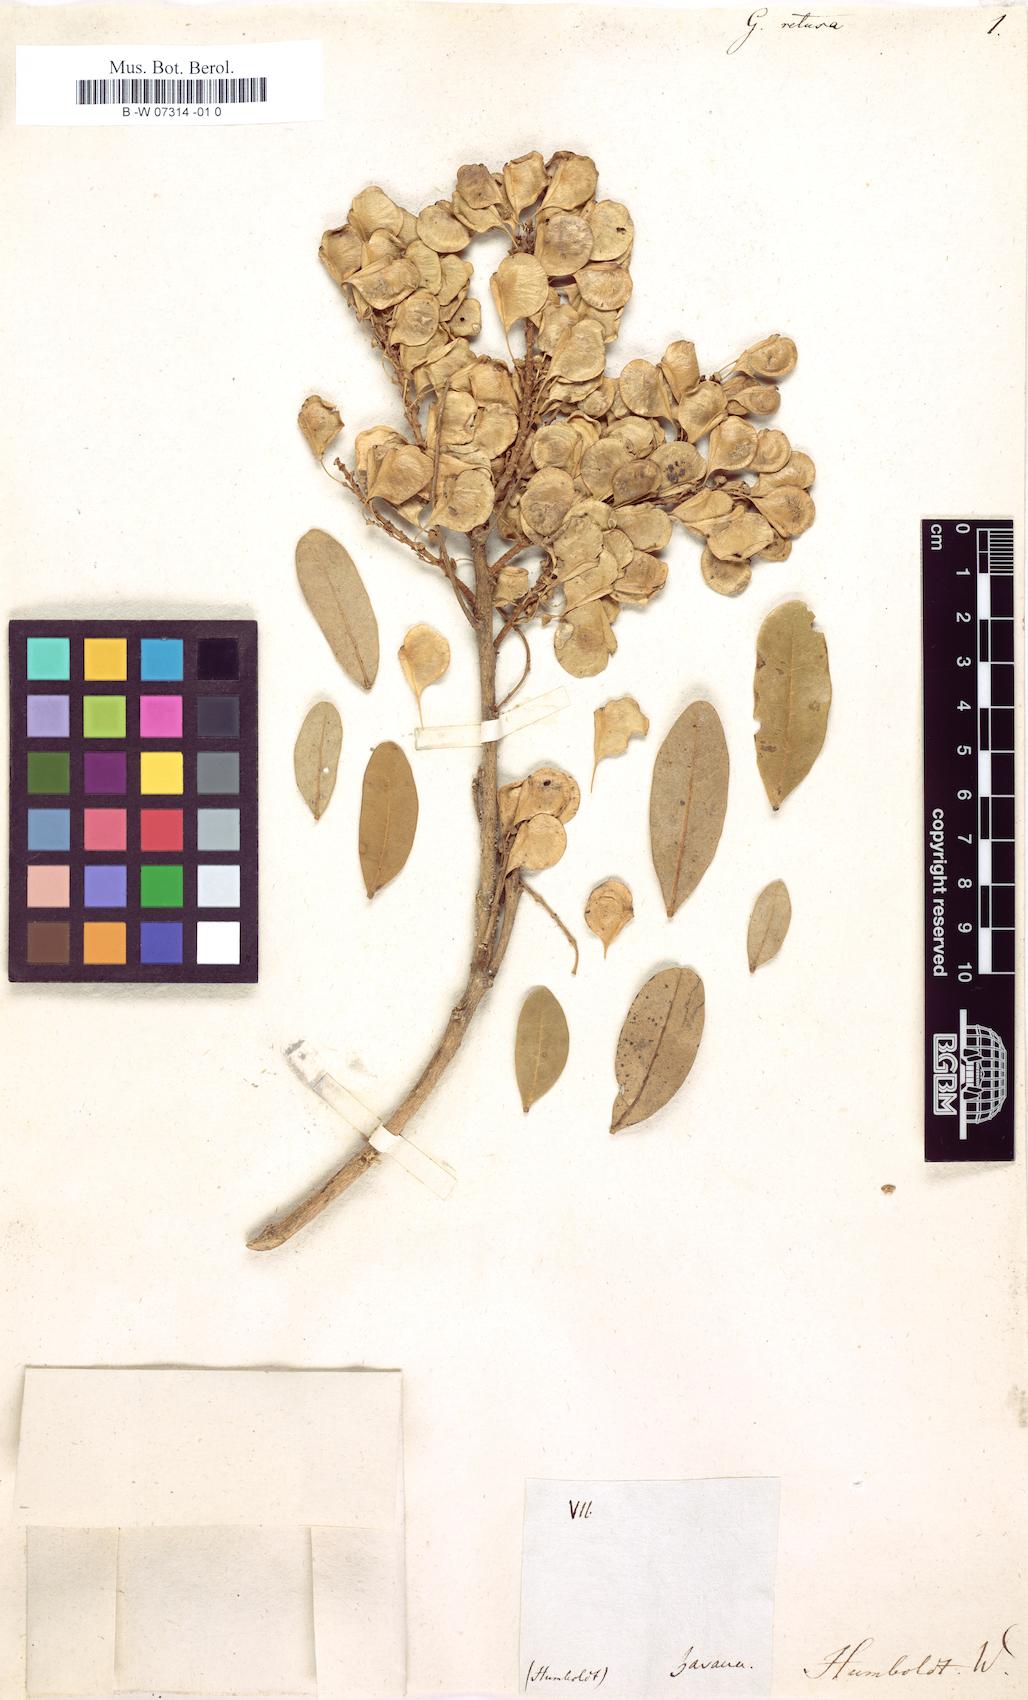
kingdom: Plantae
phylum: Tracheophyta
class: Magnoliopsida
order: Fabales
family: Fabaceae
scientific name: Fabaceae
